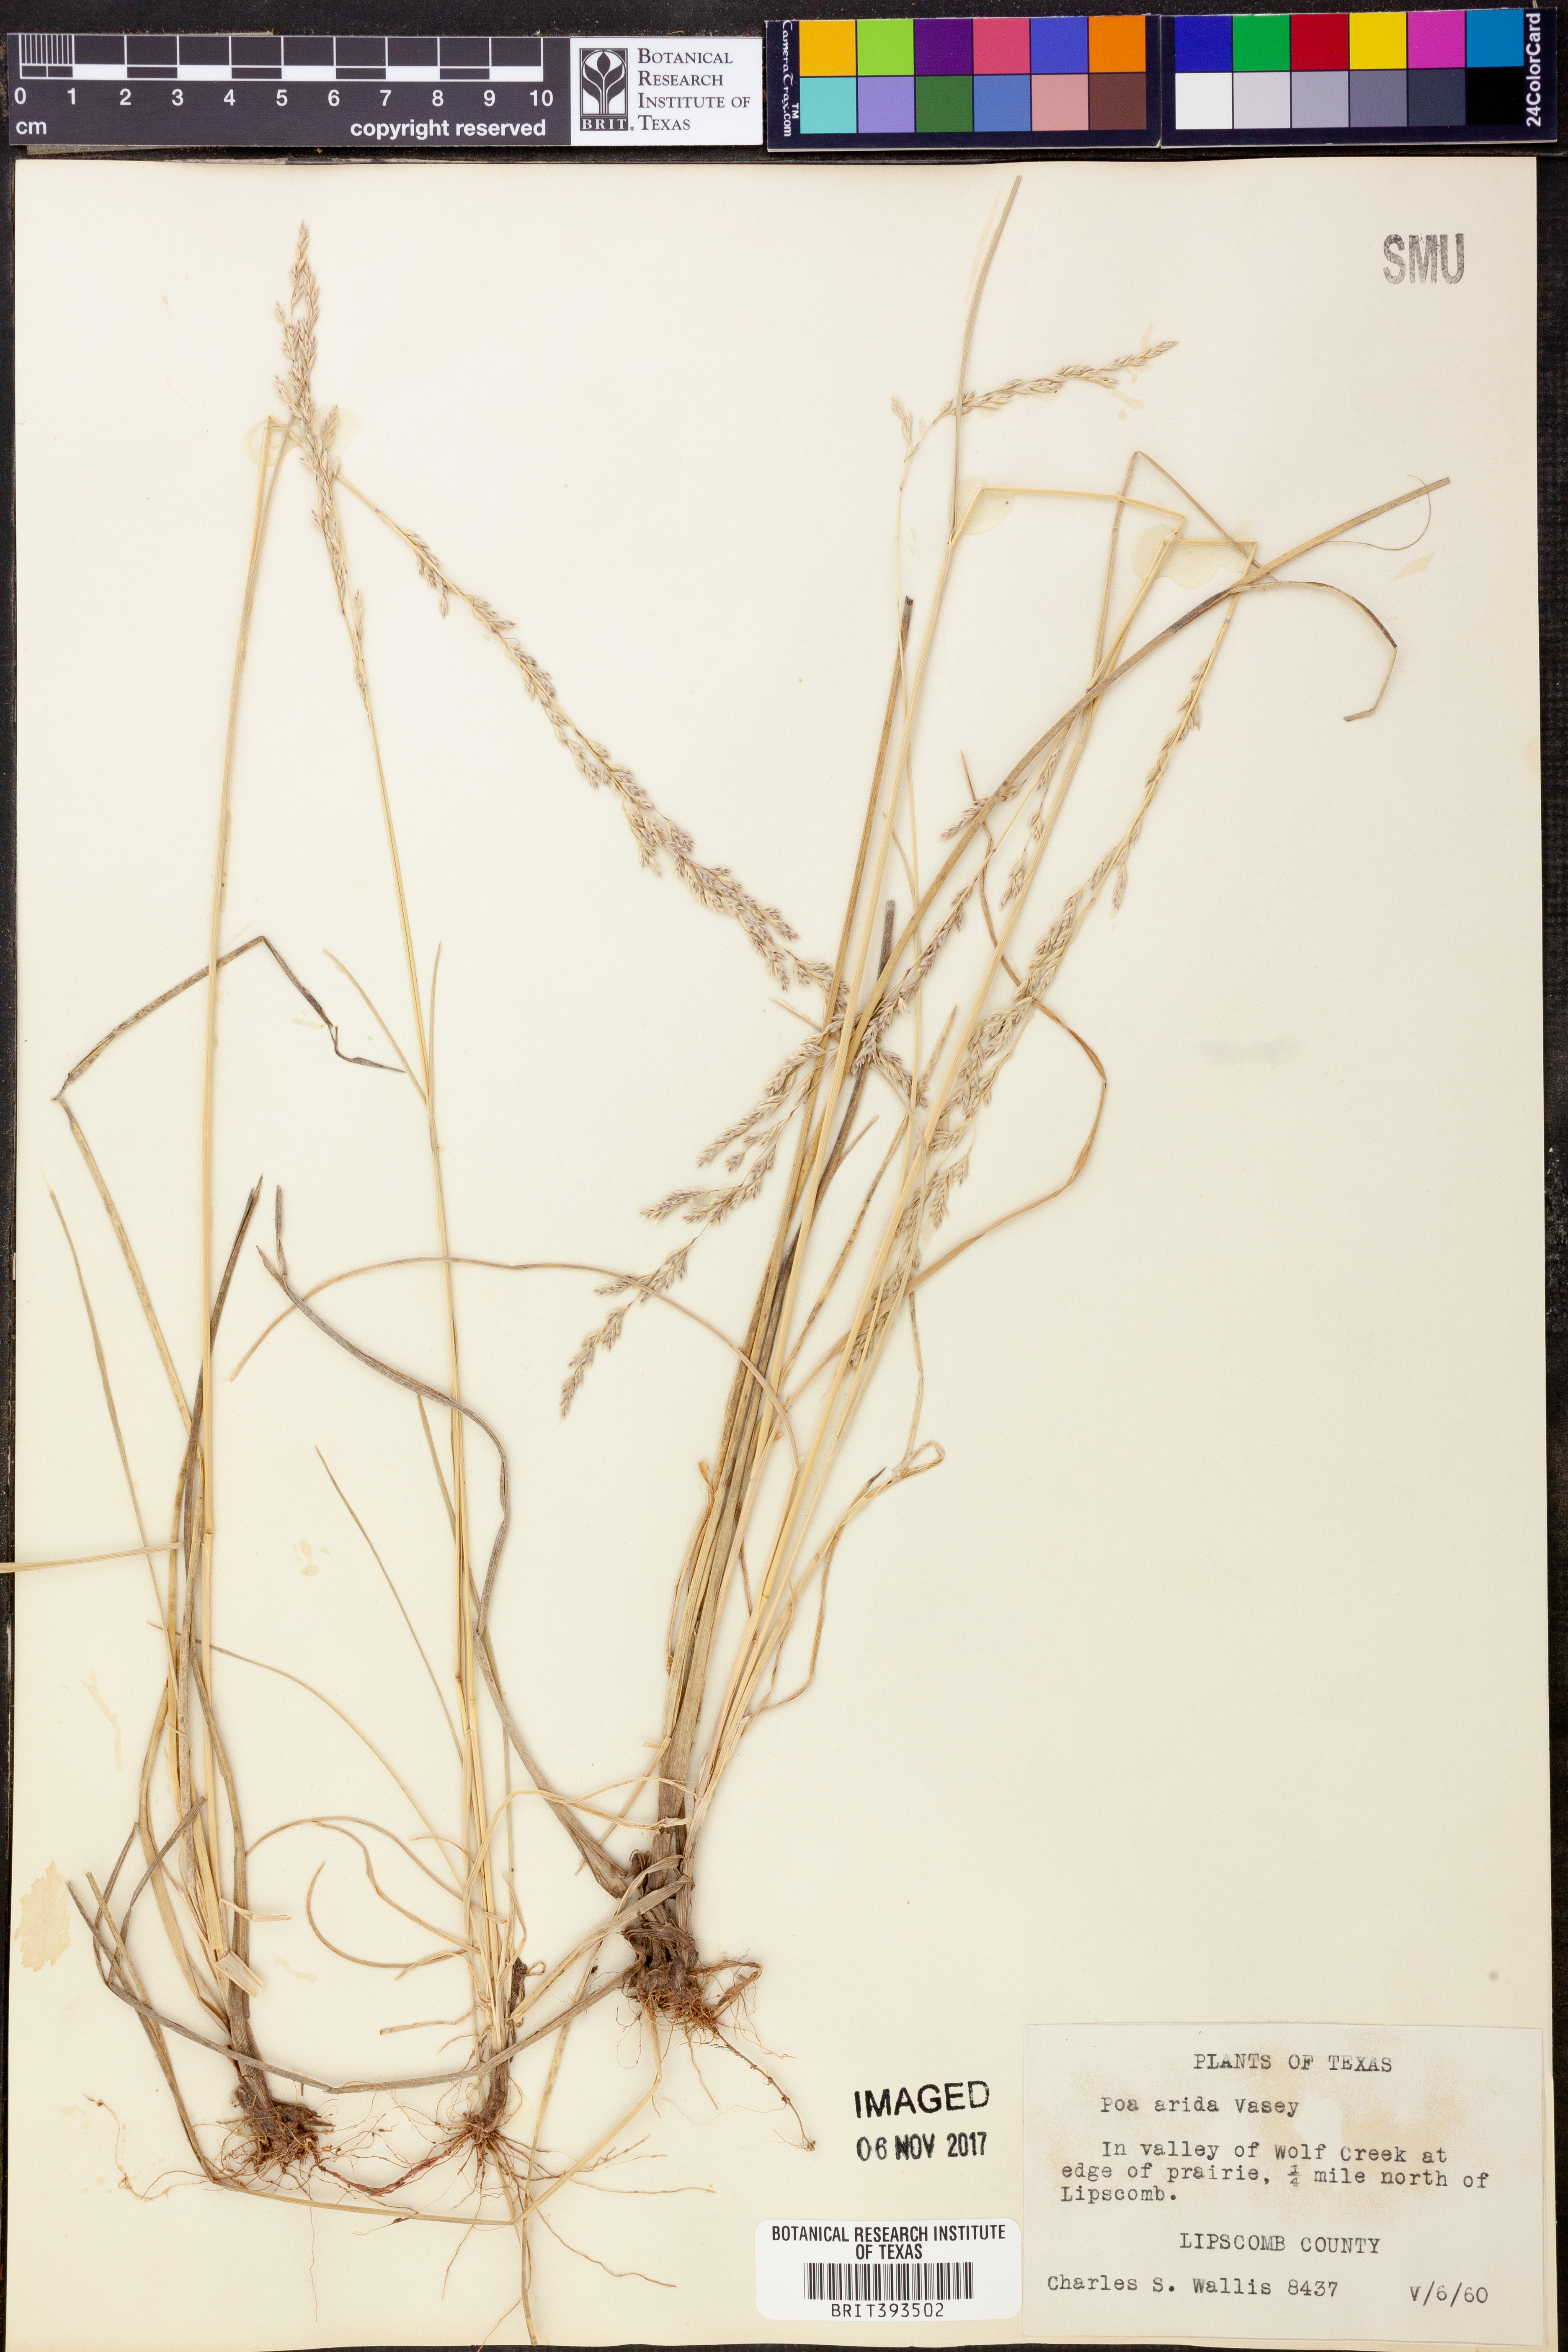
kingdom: Plantae
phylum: Tracheophyta
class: Liliopsida
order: Poales
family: Poaceae
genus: Poa
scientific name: Poa arida
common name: Plains bluegrass
